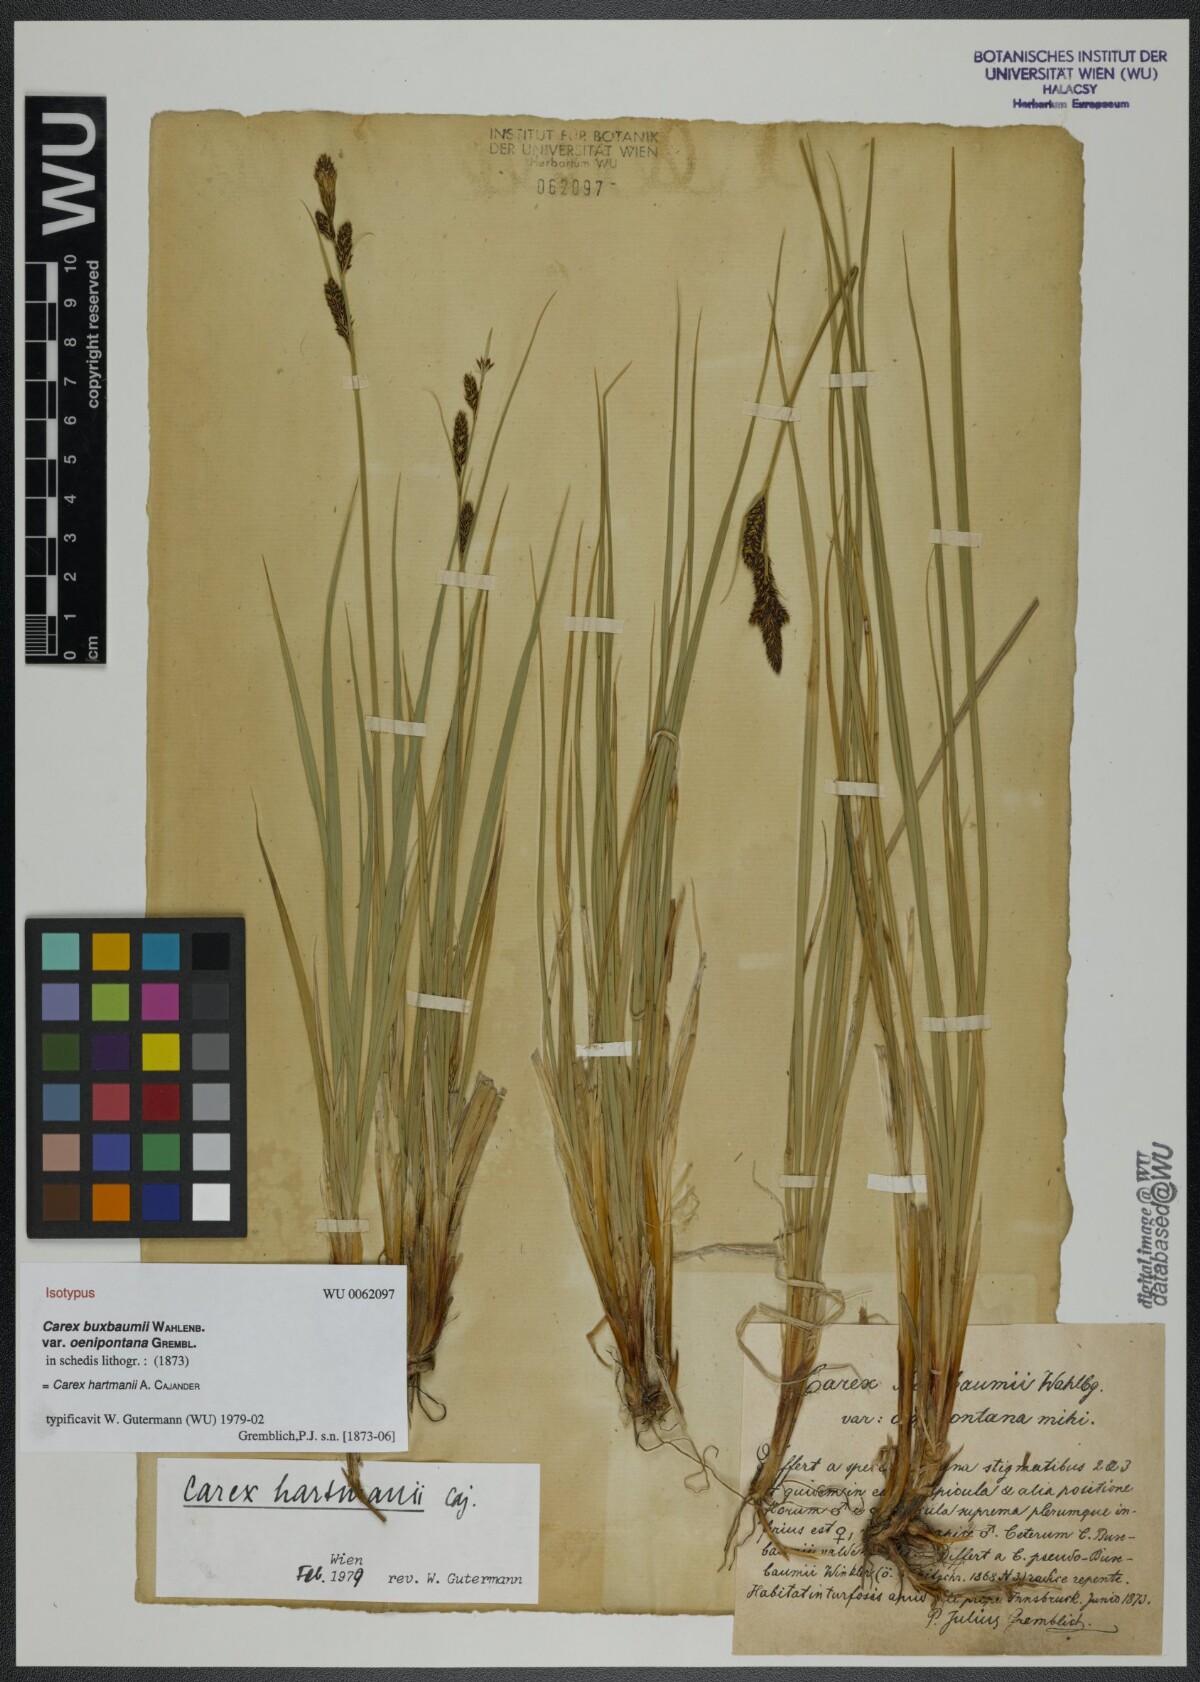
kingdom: Plantae
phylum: Tracheophyta
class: Liliopsida
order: Poales
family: Cyperaceae
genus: Carex
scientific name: Carex buxbaumii
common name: Club sedge
